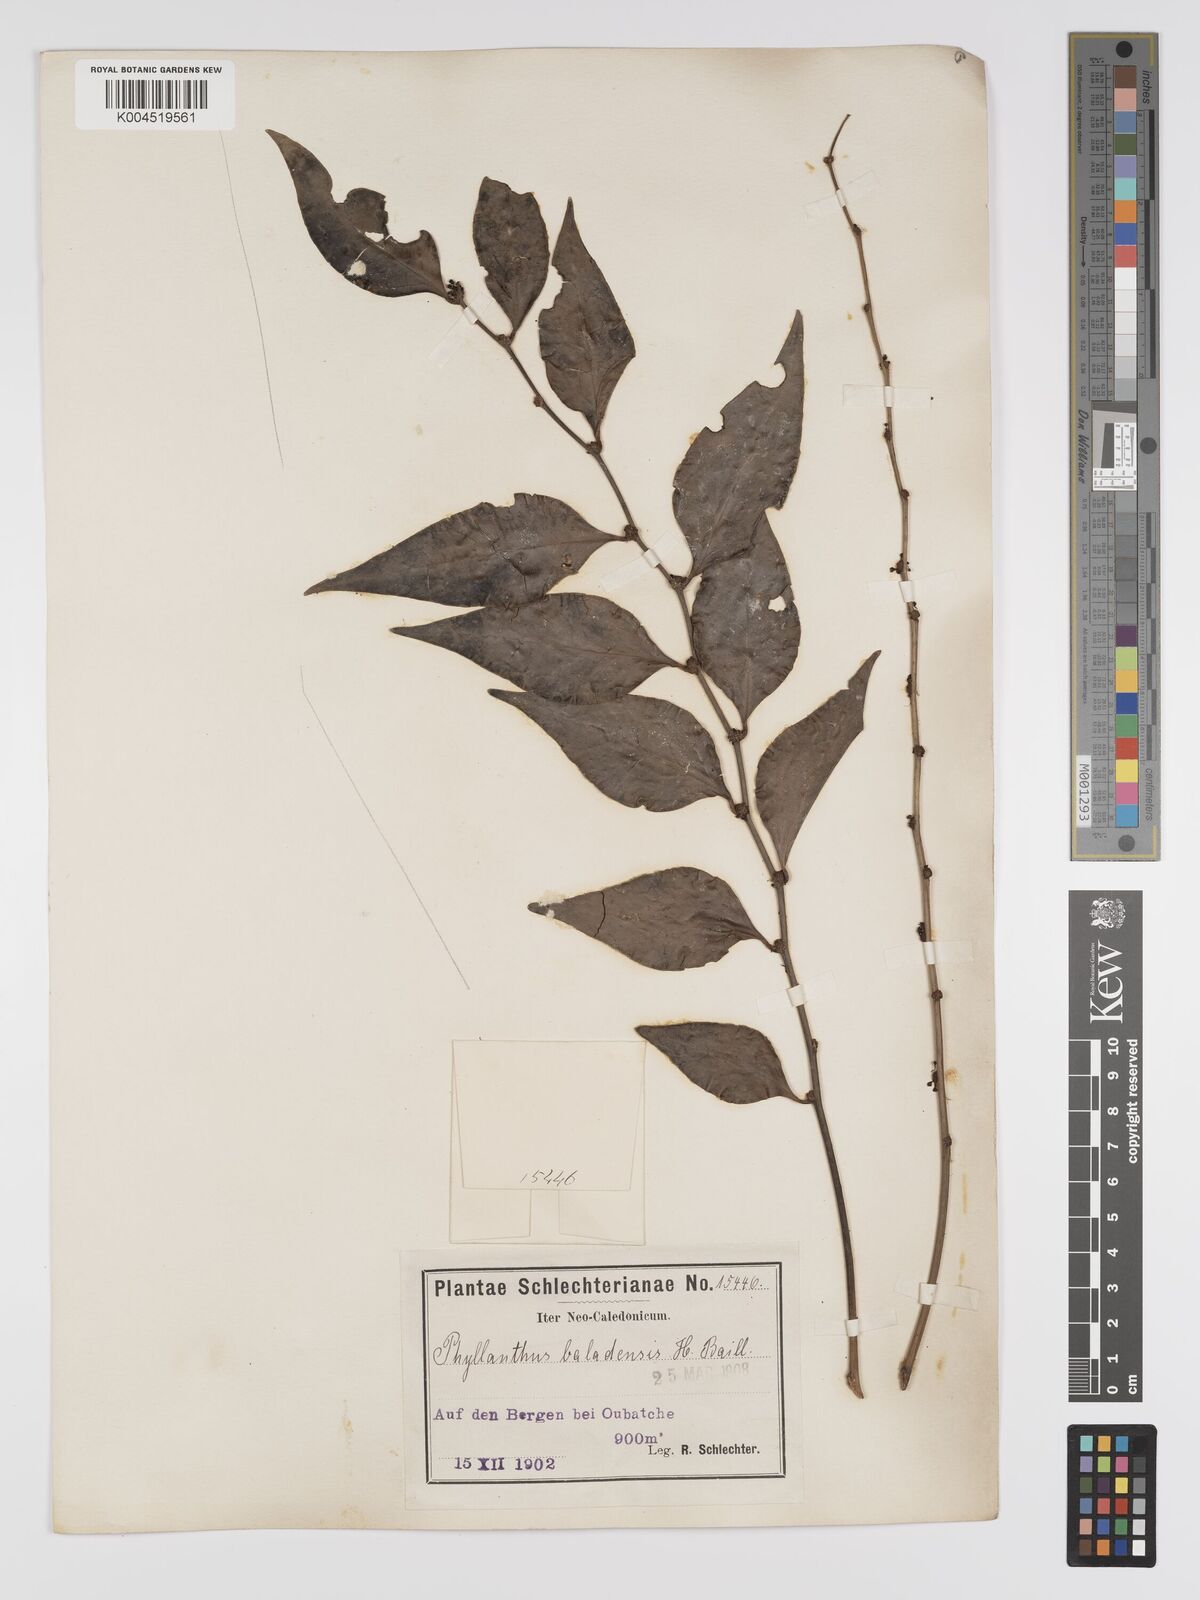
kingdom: Plantae
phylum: Tracheophyta
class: Magnoliopsida
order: Malpighiales
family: Phyllanthaceae
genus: Phyllanthus
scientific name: Phyllanthus baladensis
